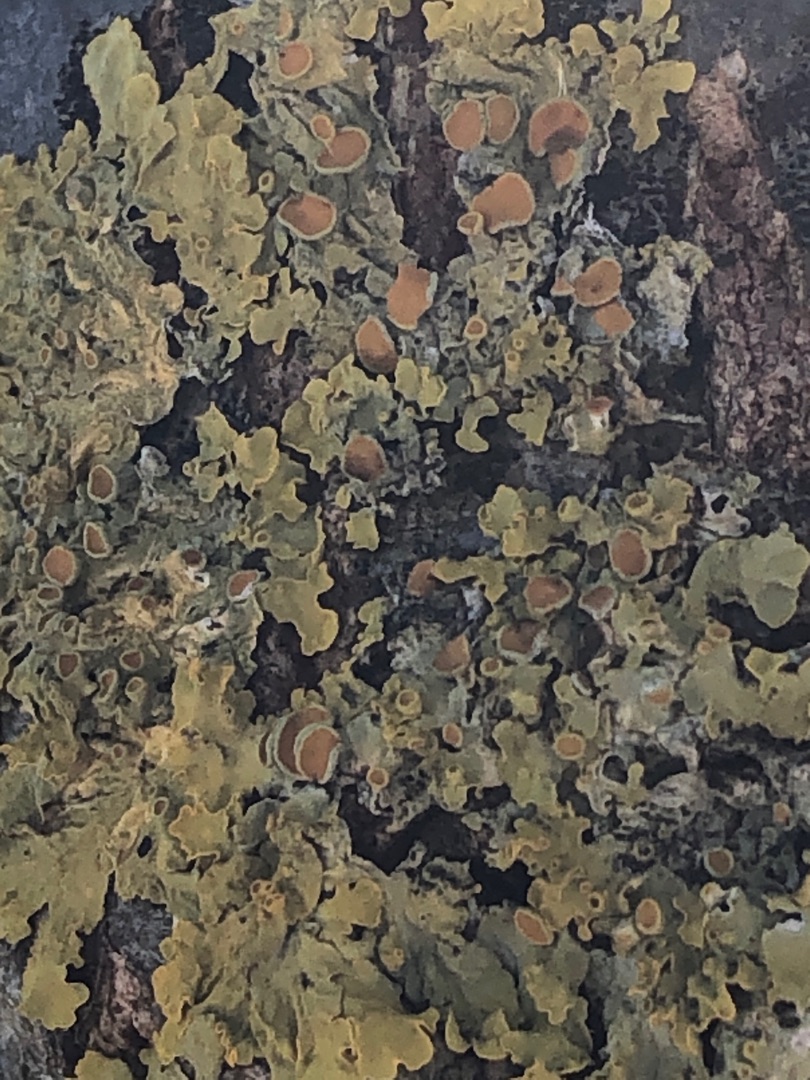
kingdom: Fungi
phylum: Ascomycota
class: Lecanoromycetes
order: Teloschistales
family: Teloschistaceae
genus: Xanthoria
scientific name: Xanthoria parietina
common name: Almindelig væggelav
